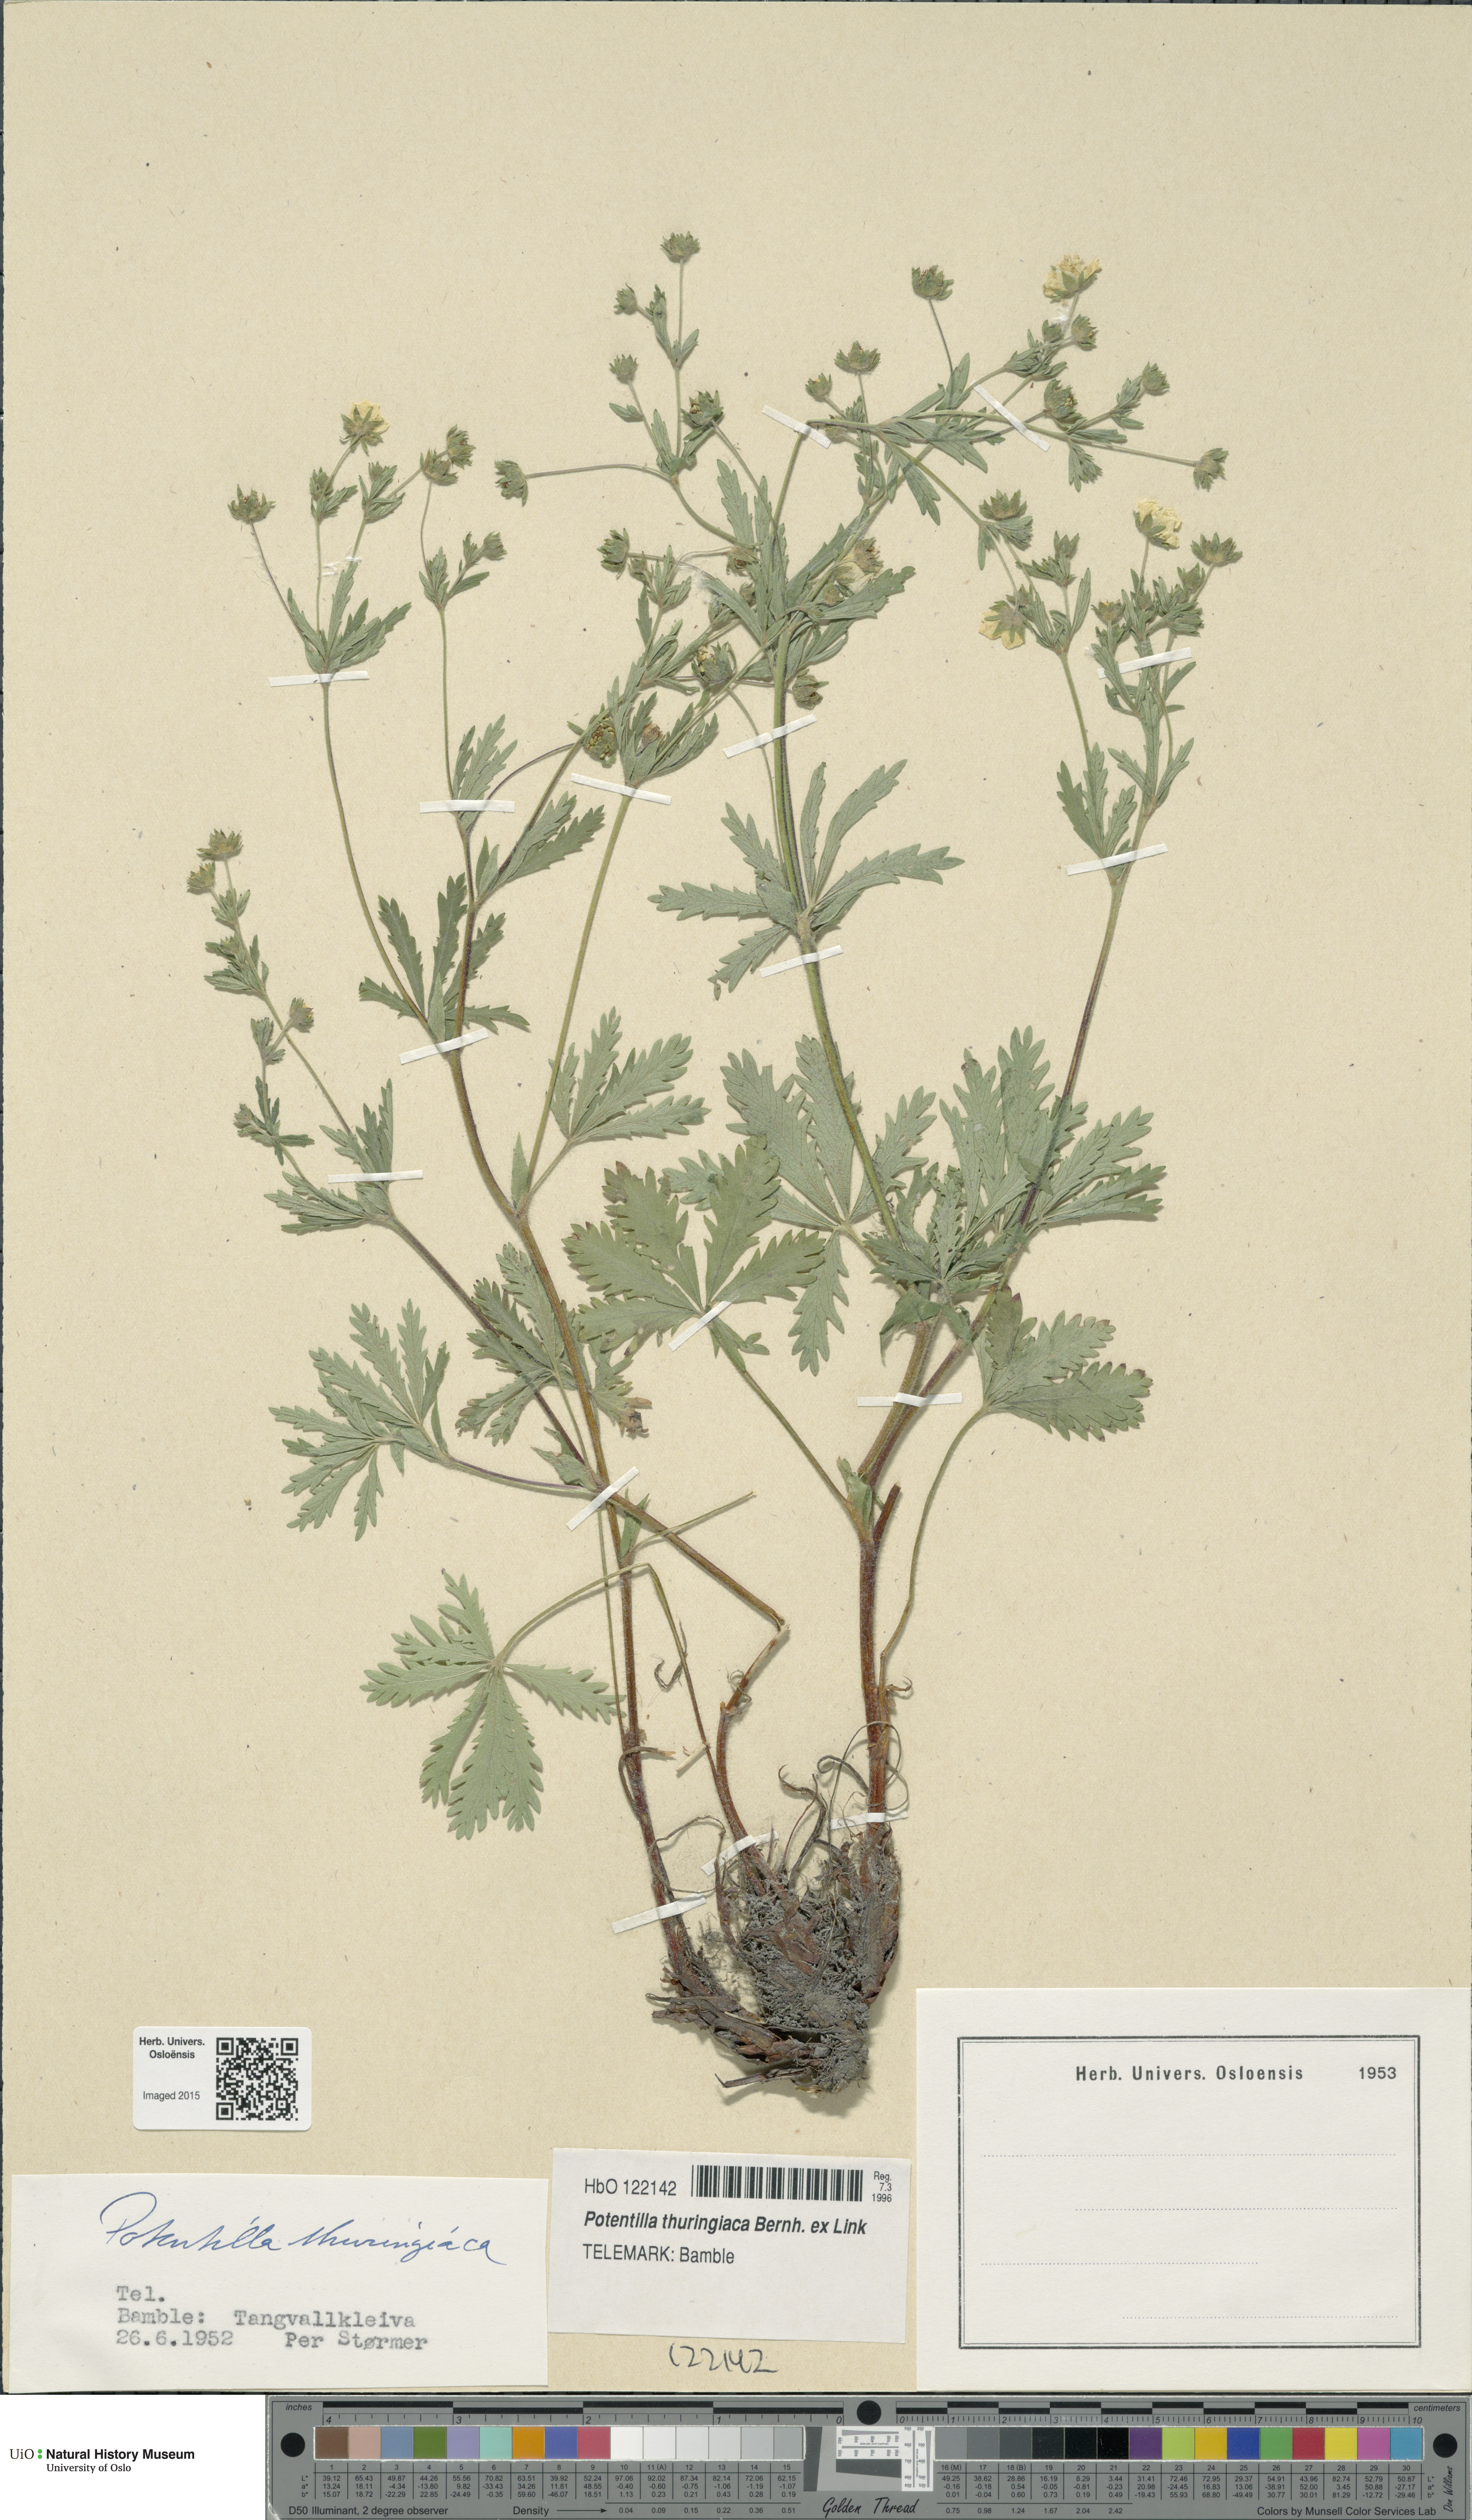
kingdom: Plantae
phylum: Tracheophyta
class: Magnoliopsida
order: Rosales
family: Rosaceae
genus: Potentilla
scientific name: Potentilla thuringiaca
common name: European cinquefoil
